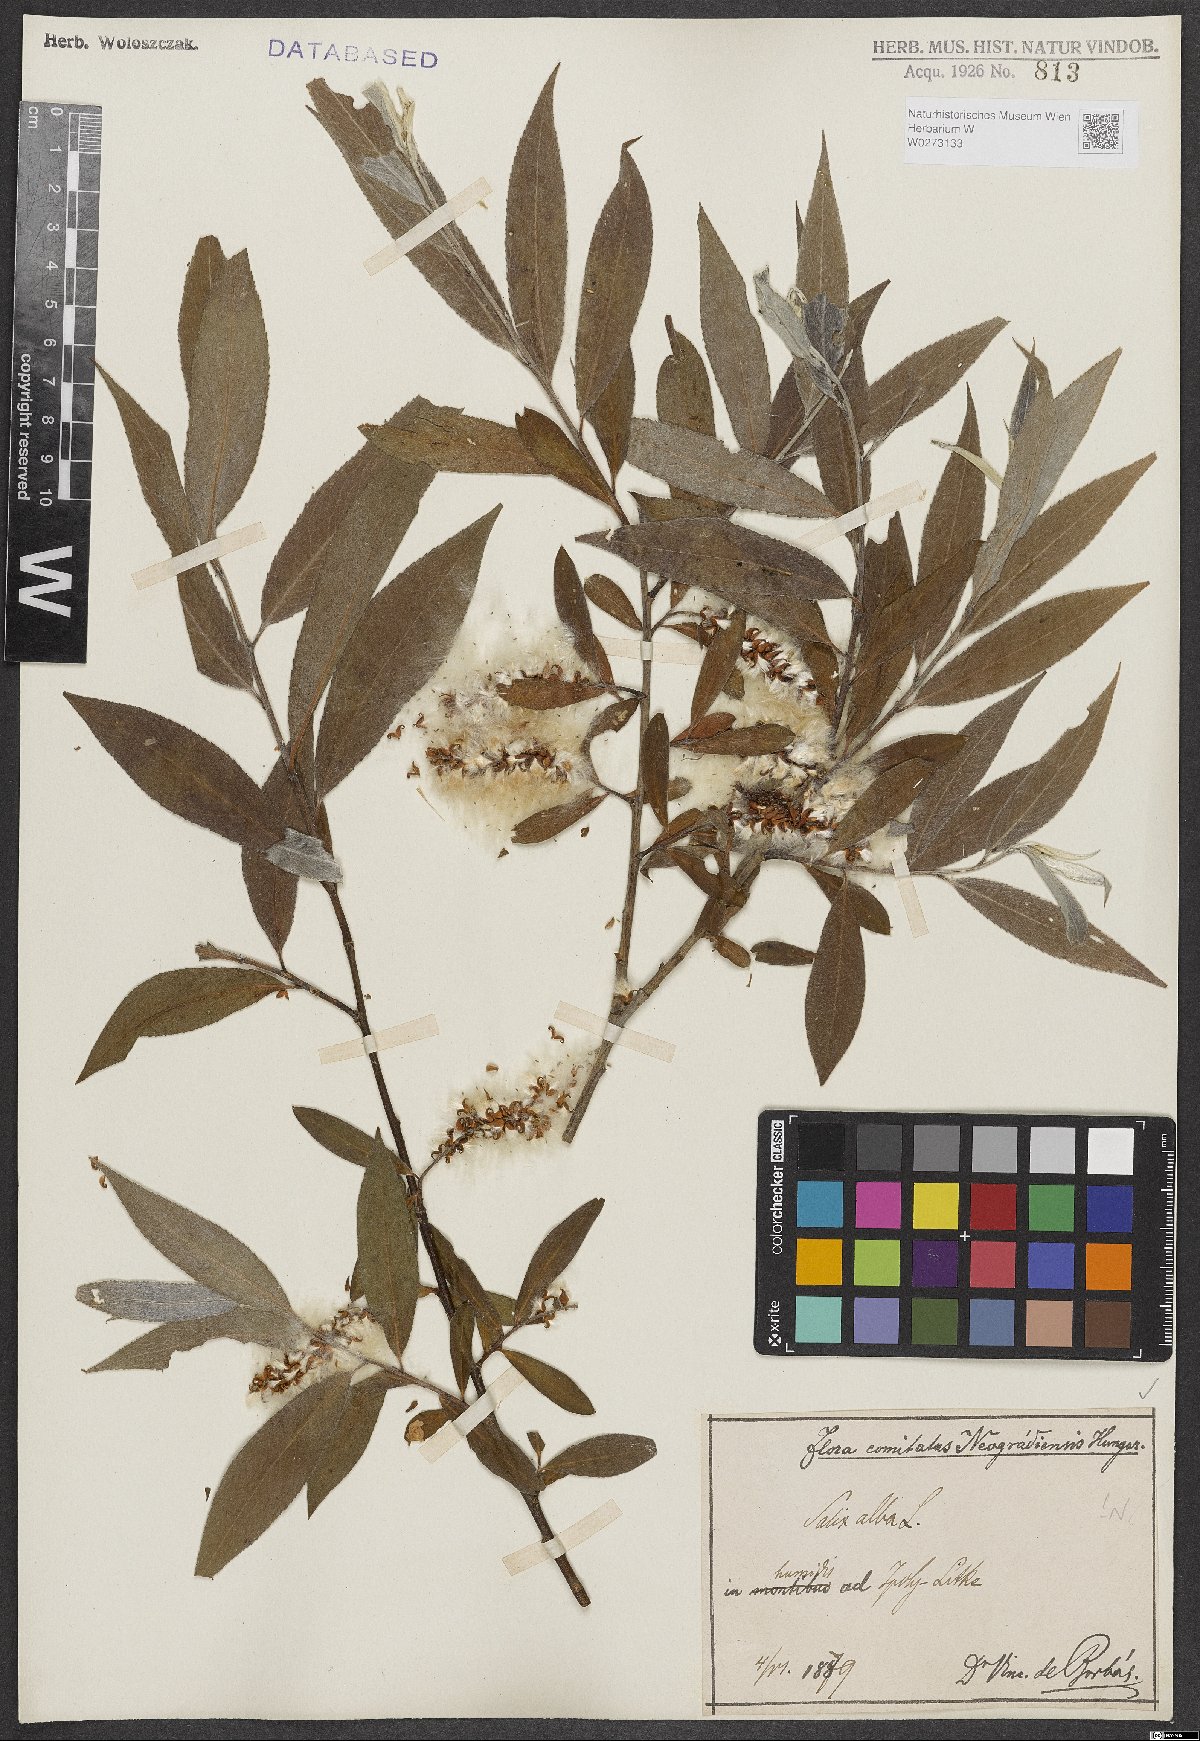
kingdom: Plantae
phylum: Tracheophyta
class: Magnoliopsida
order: Malpighiales
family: Salicaceae
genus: Salix
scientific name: Salix alba
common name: White willow
